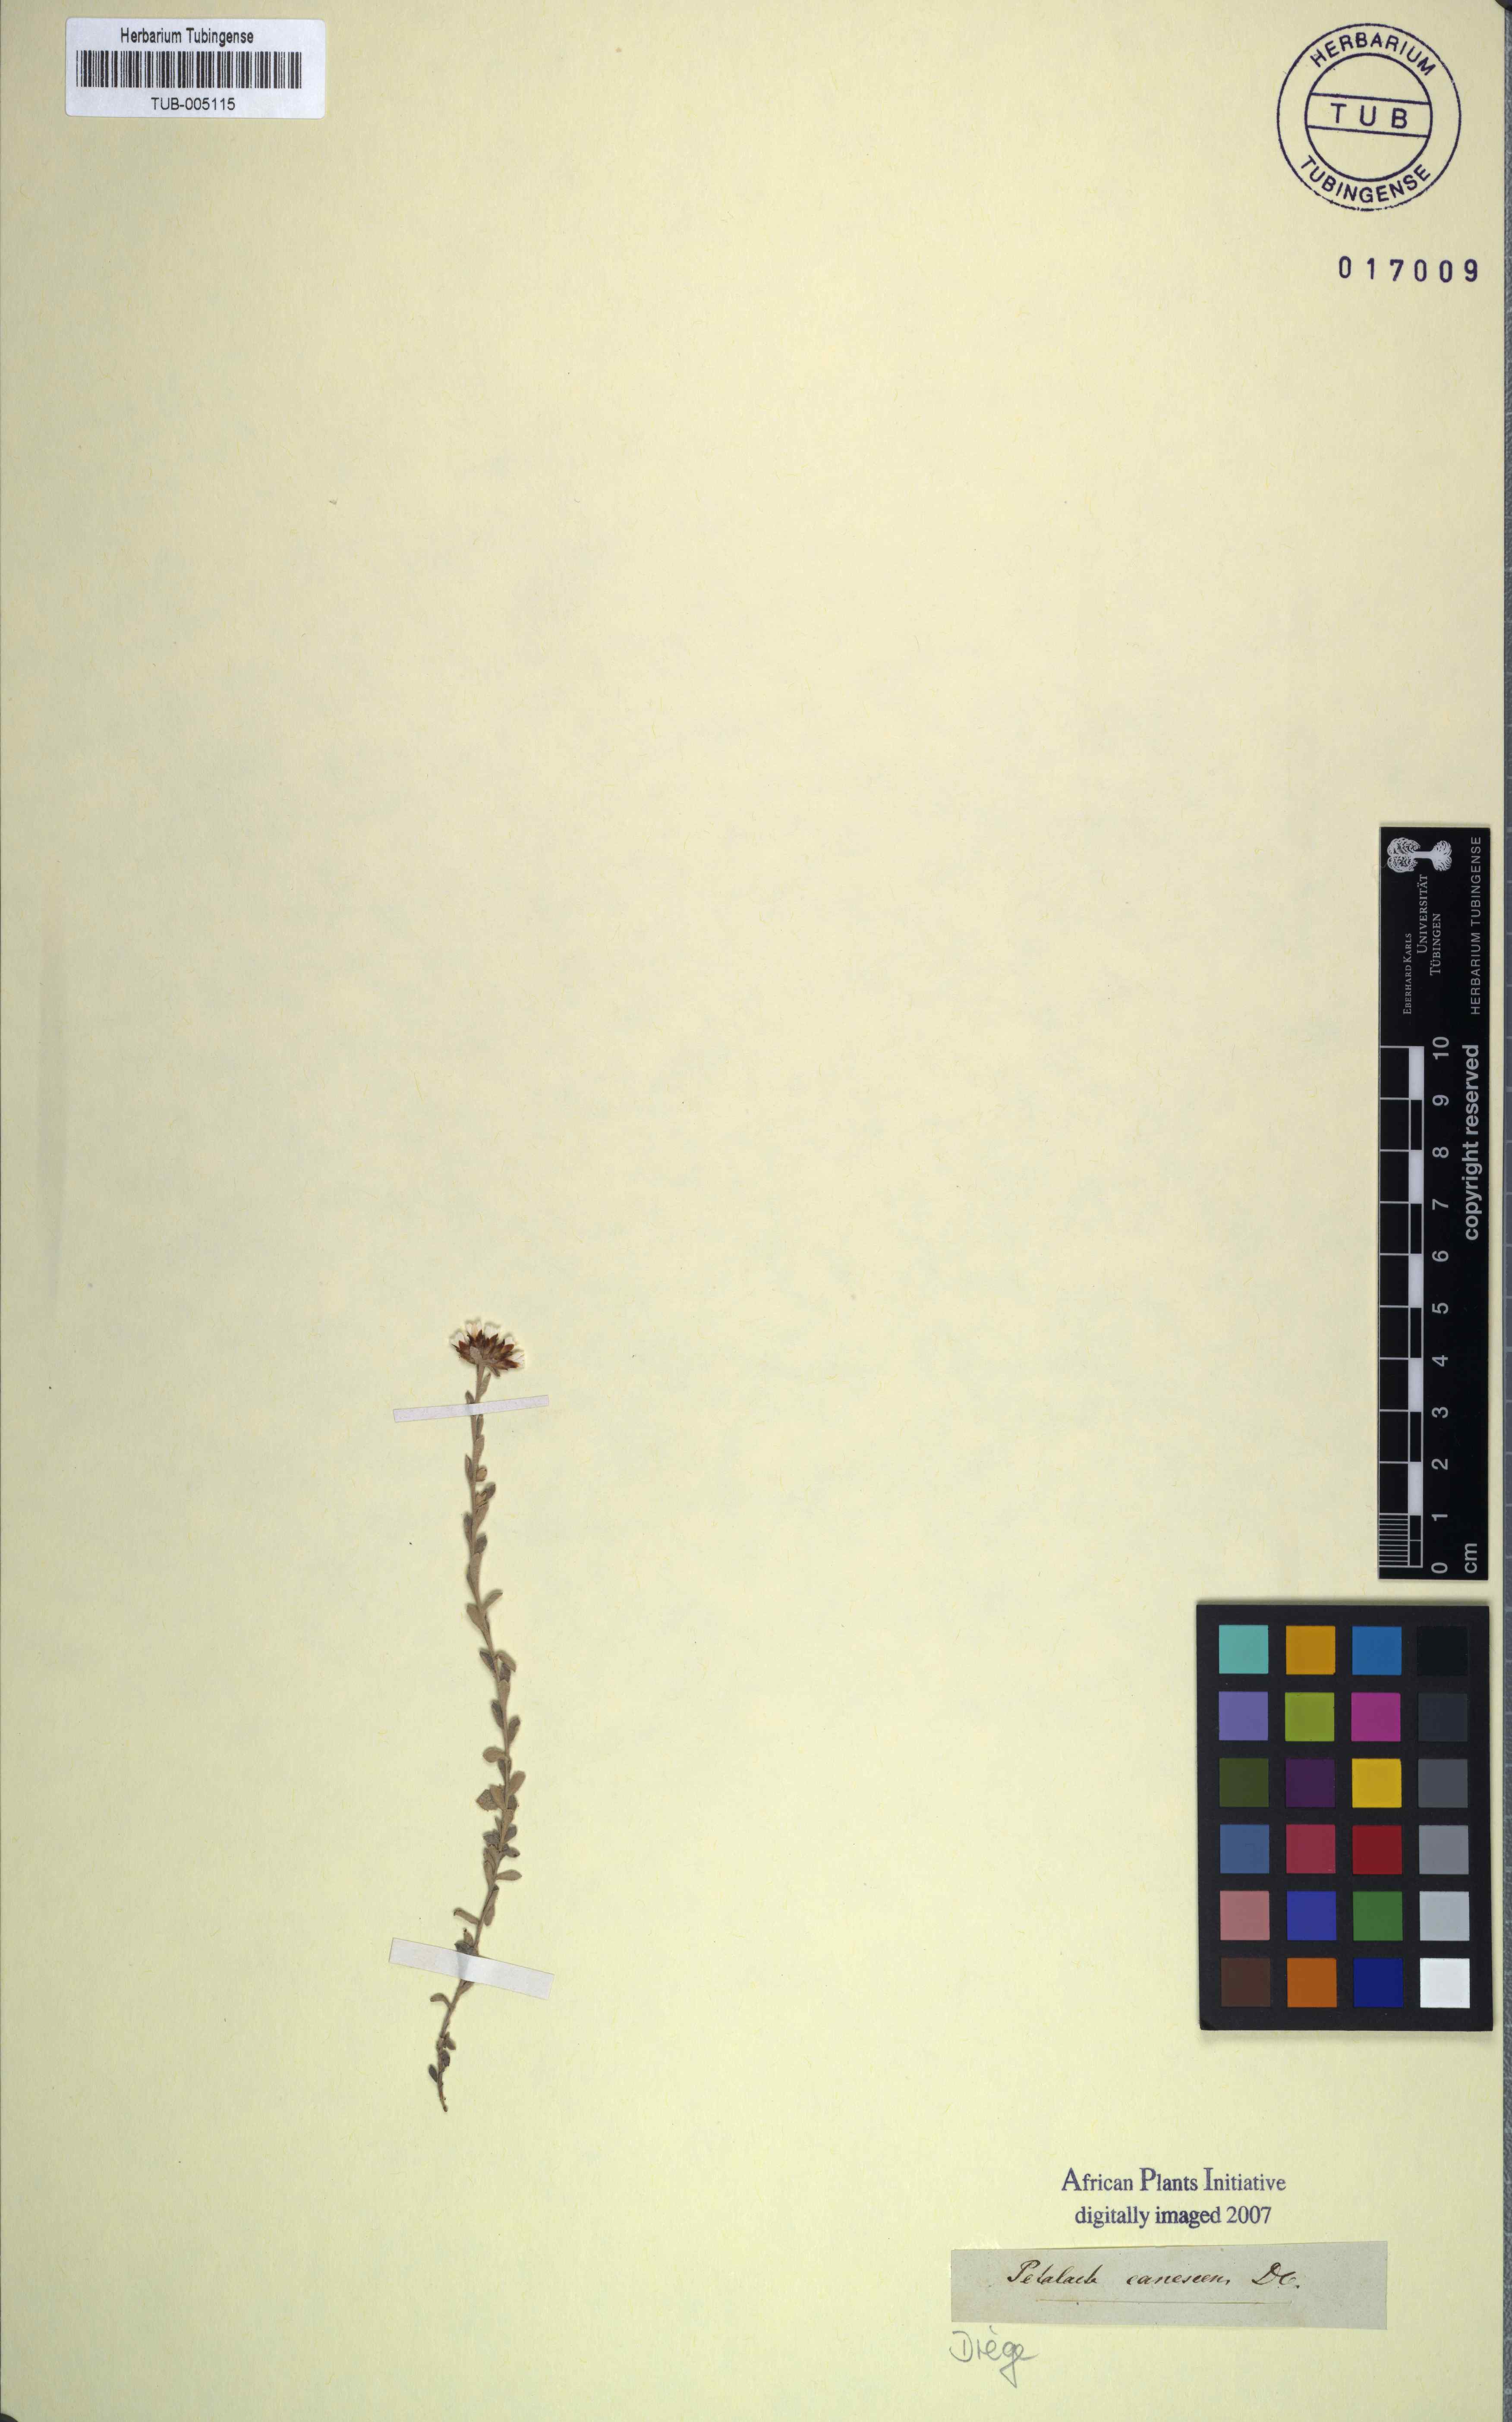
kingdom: Plantae
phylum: Tracheophyta
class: Magnoliopsida
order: Asterales
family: Asteraceae
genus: Langebergia
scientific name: Langebergia canescens
